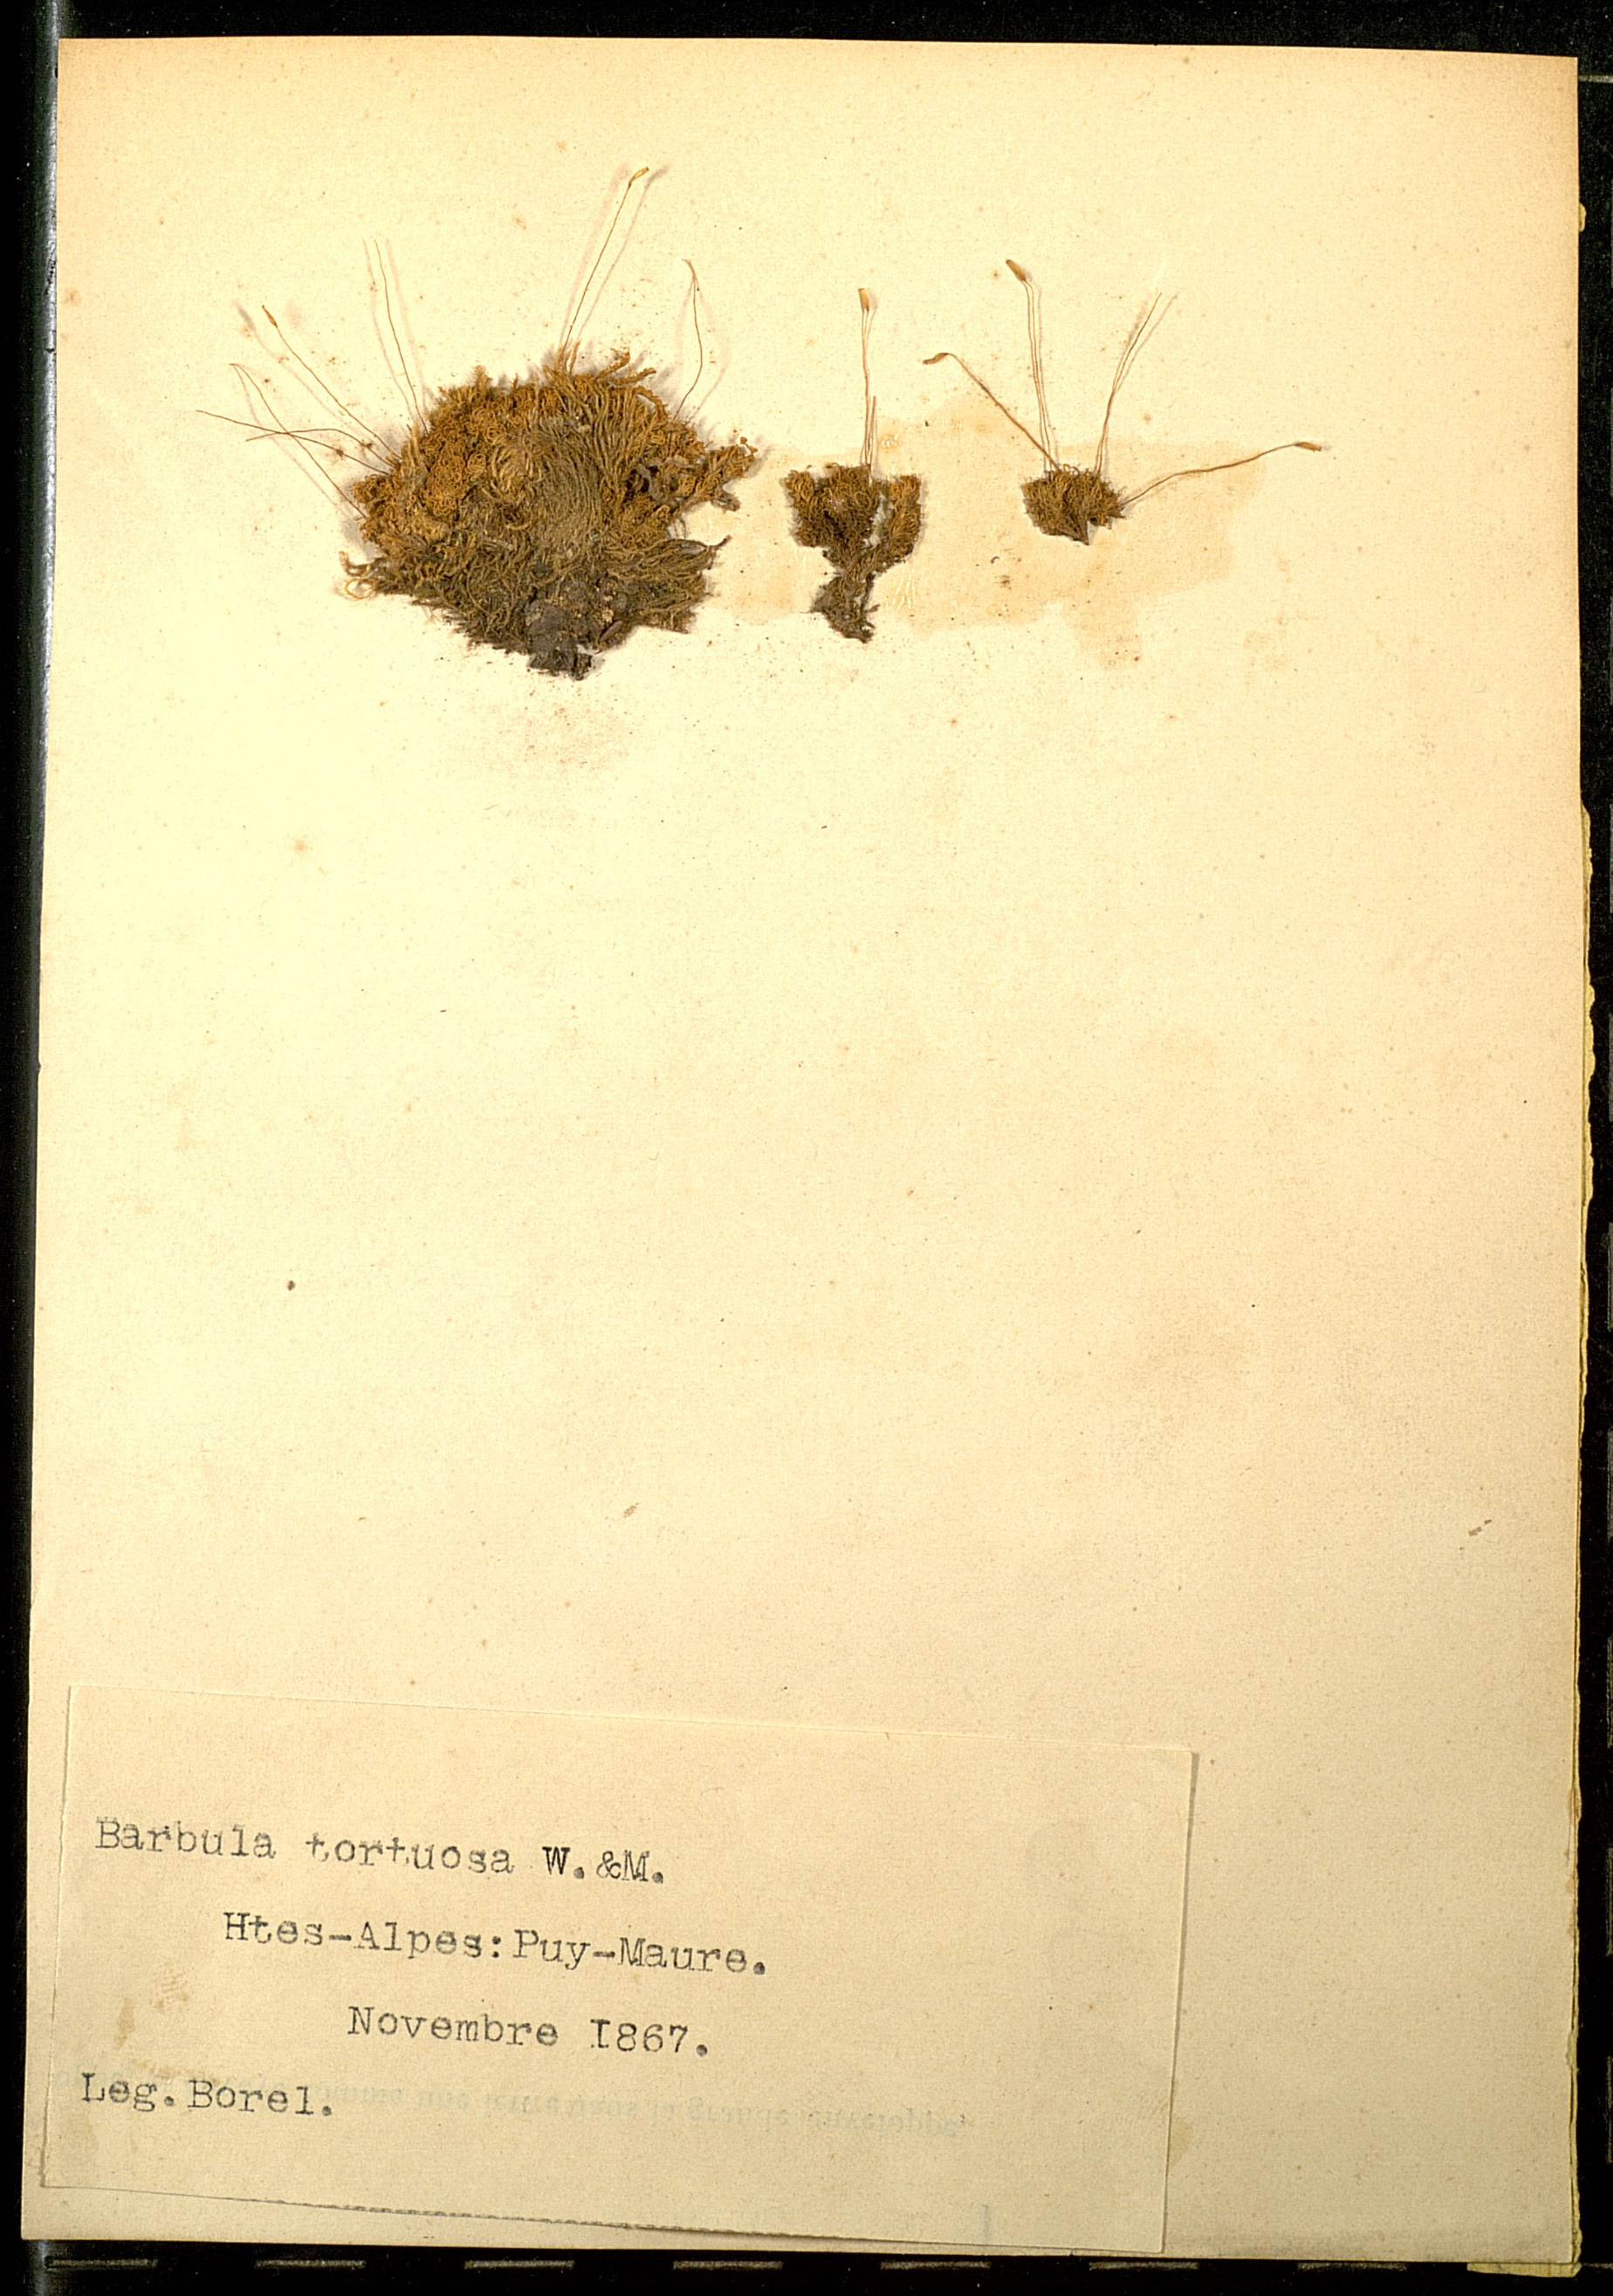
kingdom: Plantae
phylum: Bryophyta
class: Bryopsida
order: Pottiales
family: Pottiaceae
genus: Tortella
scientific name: Tortella tortuosa
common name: Frizzled crisp moss
